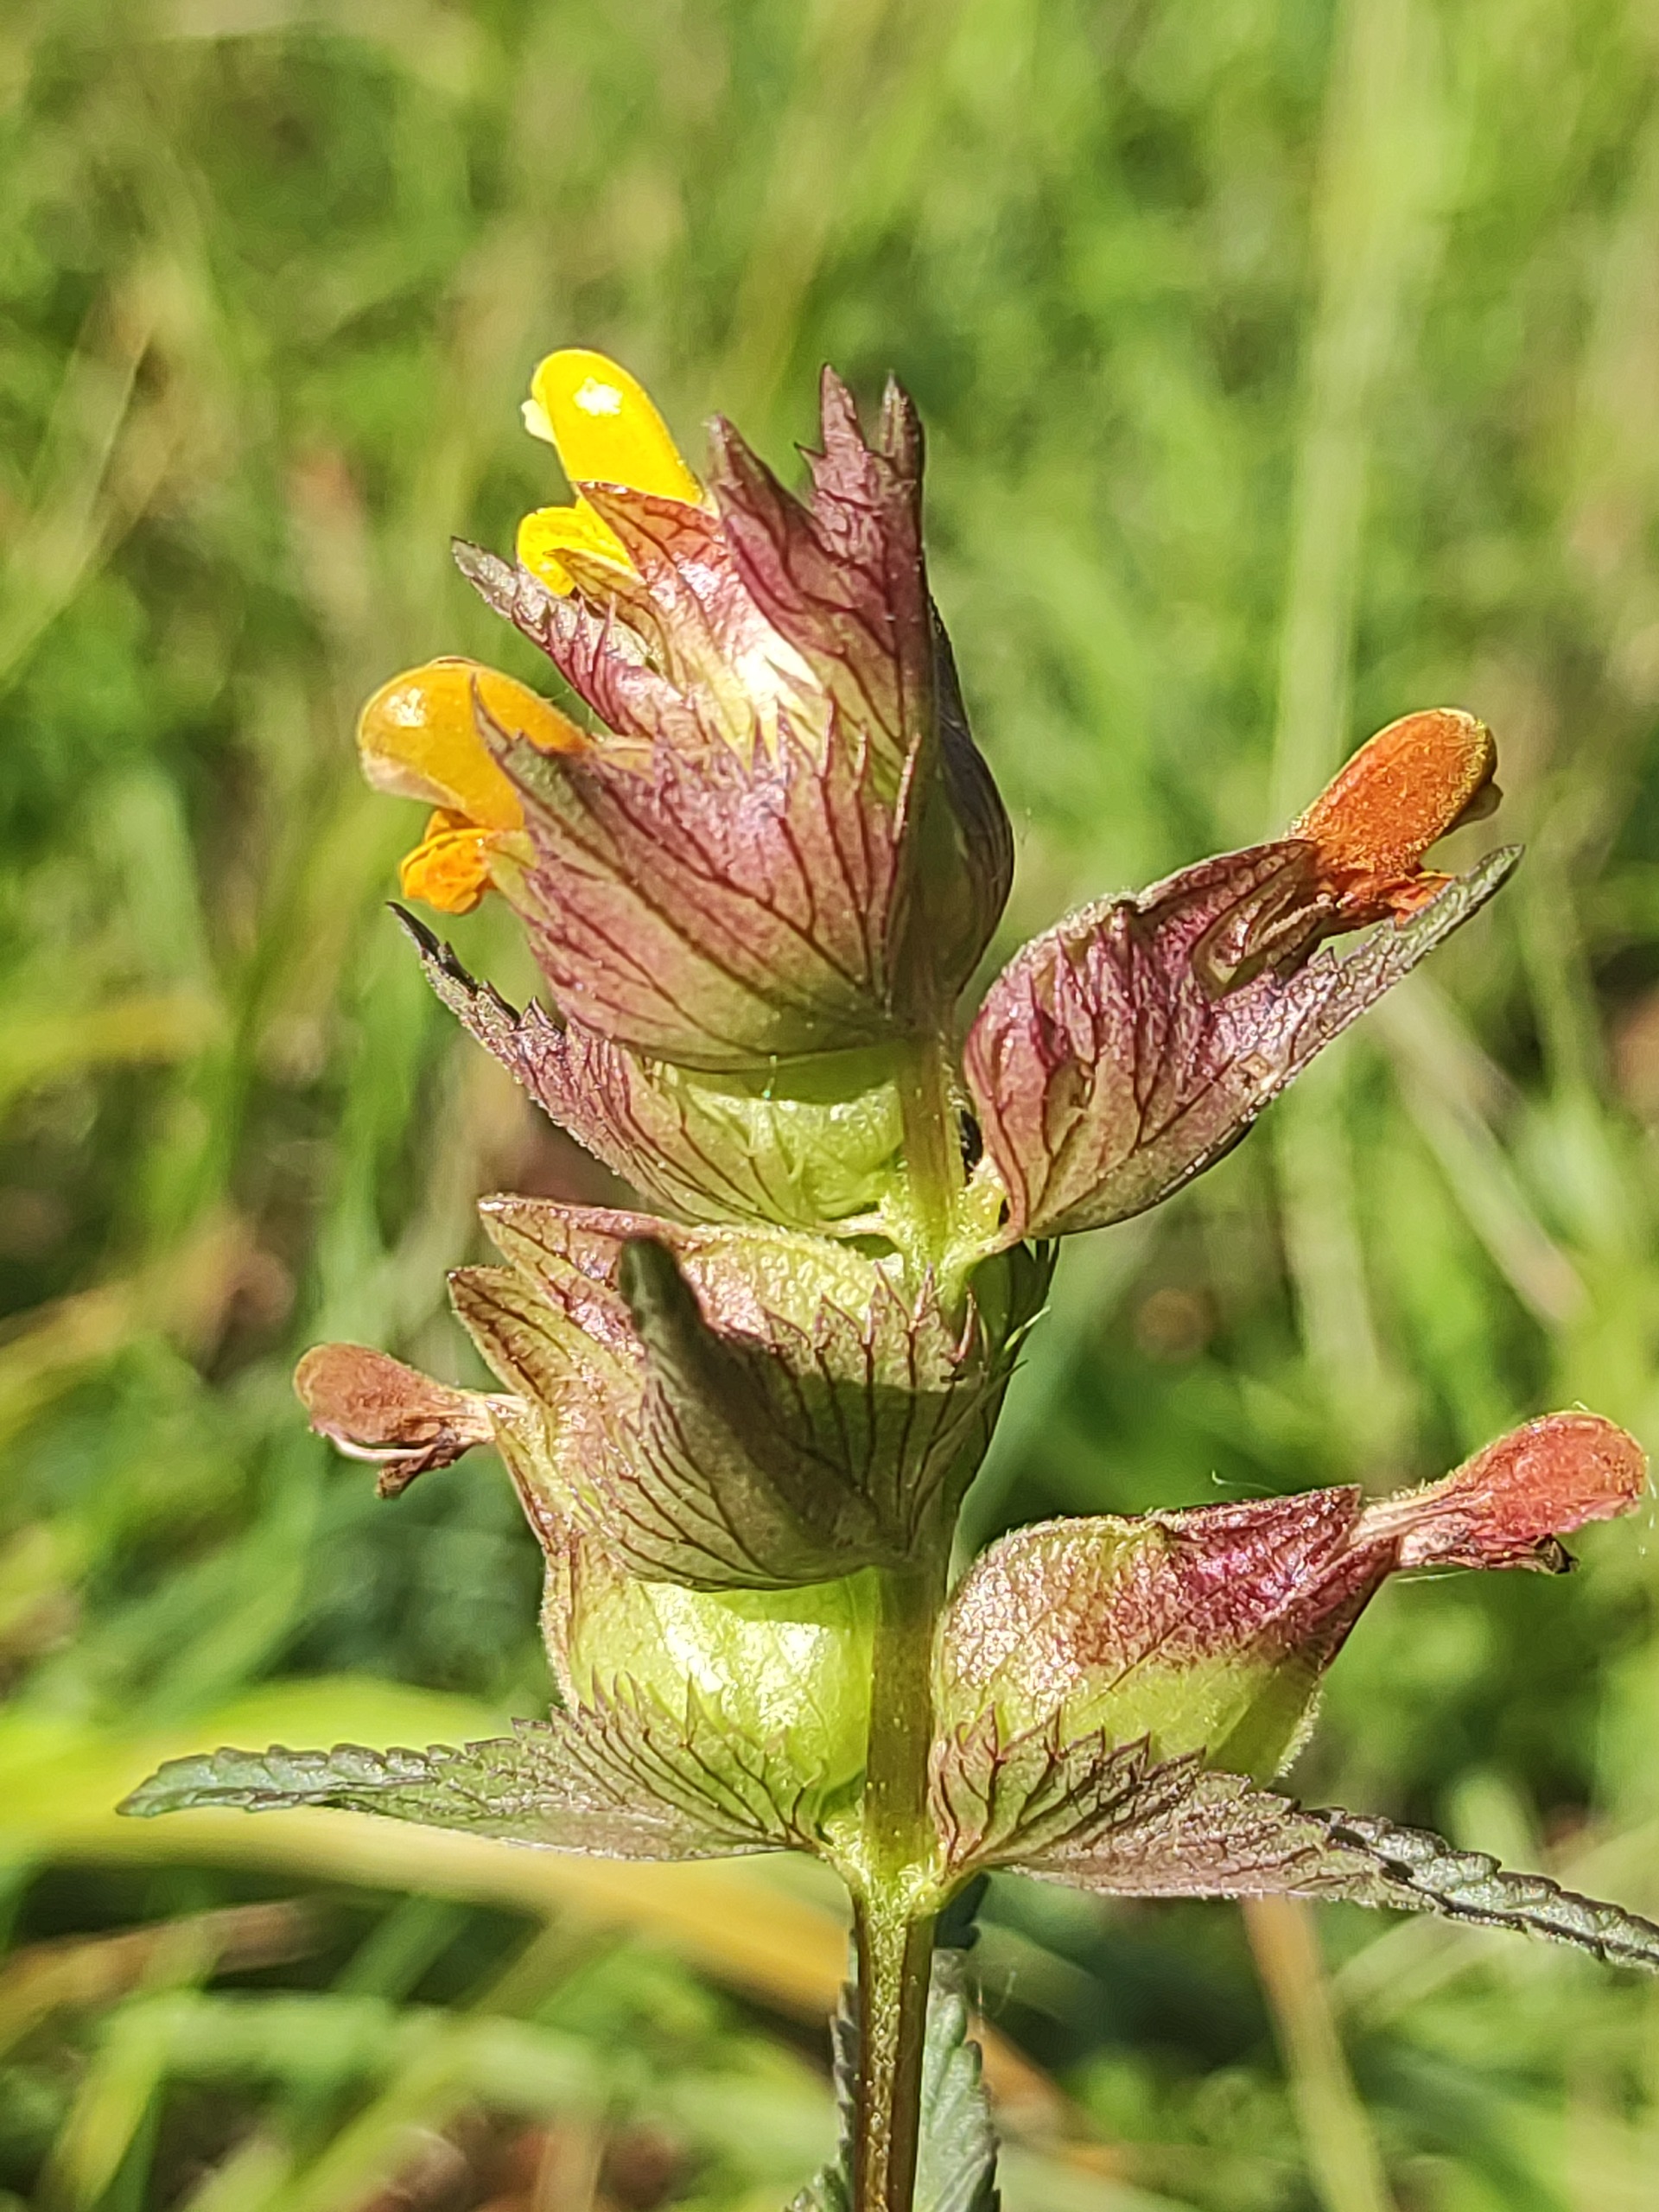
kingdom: Plantae
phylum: Tracheophyta
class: Magnoliopsida
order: Lamiales
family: Orobanchaceae
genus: Rhinanthus
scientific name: Rhinanthus minor
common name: Liden skjaller
